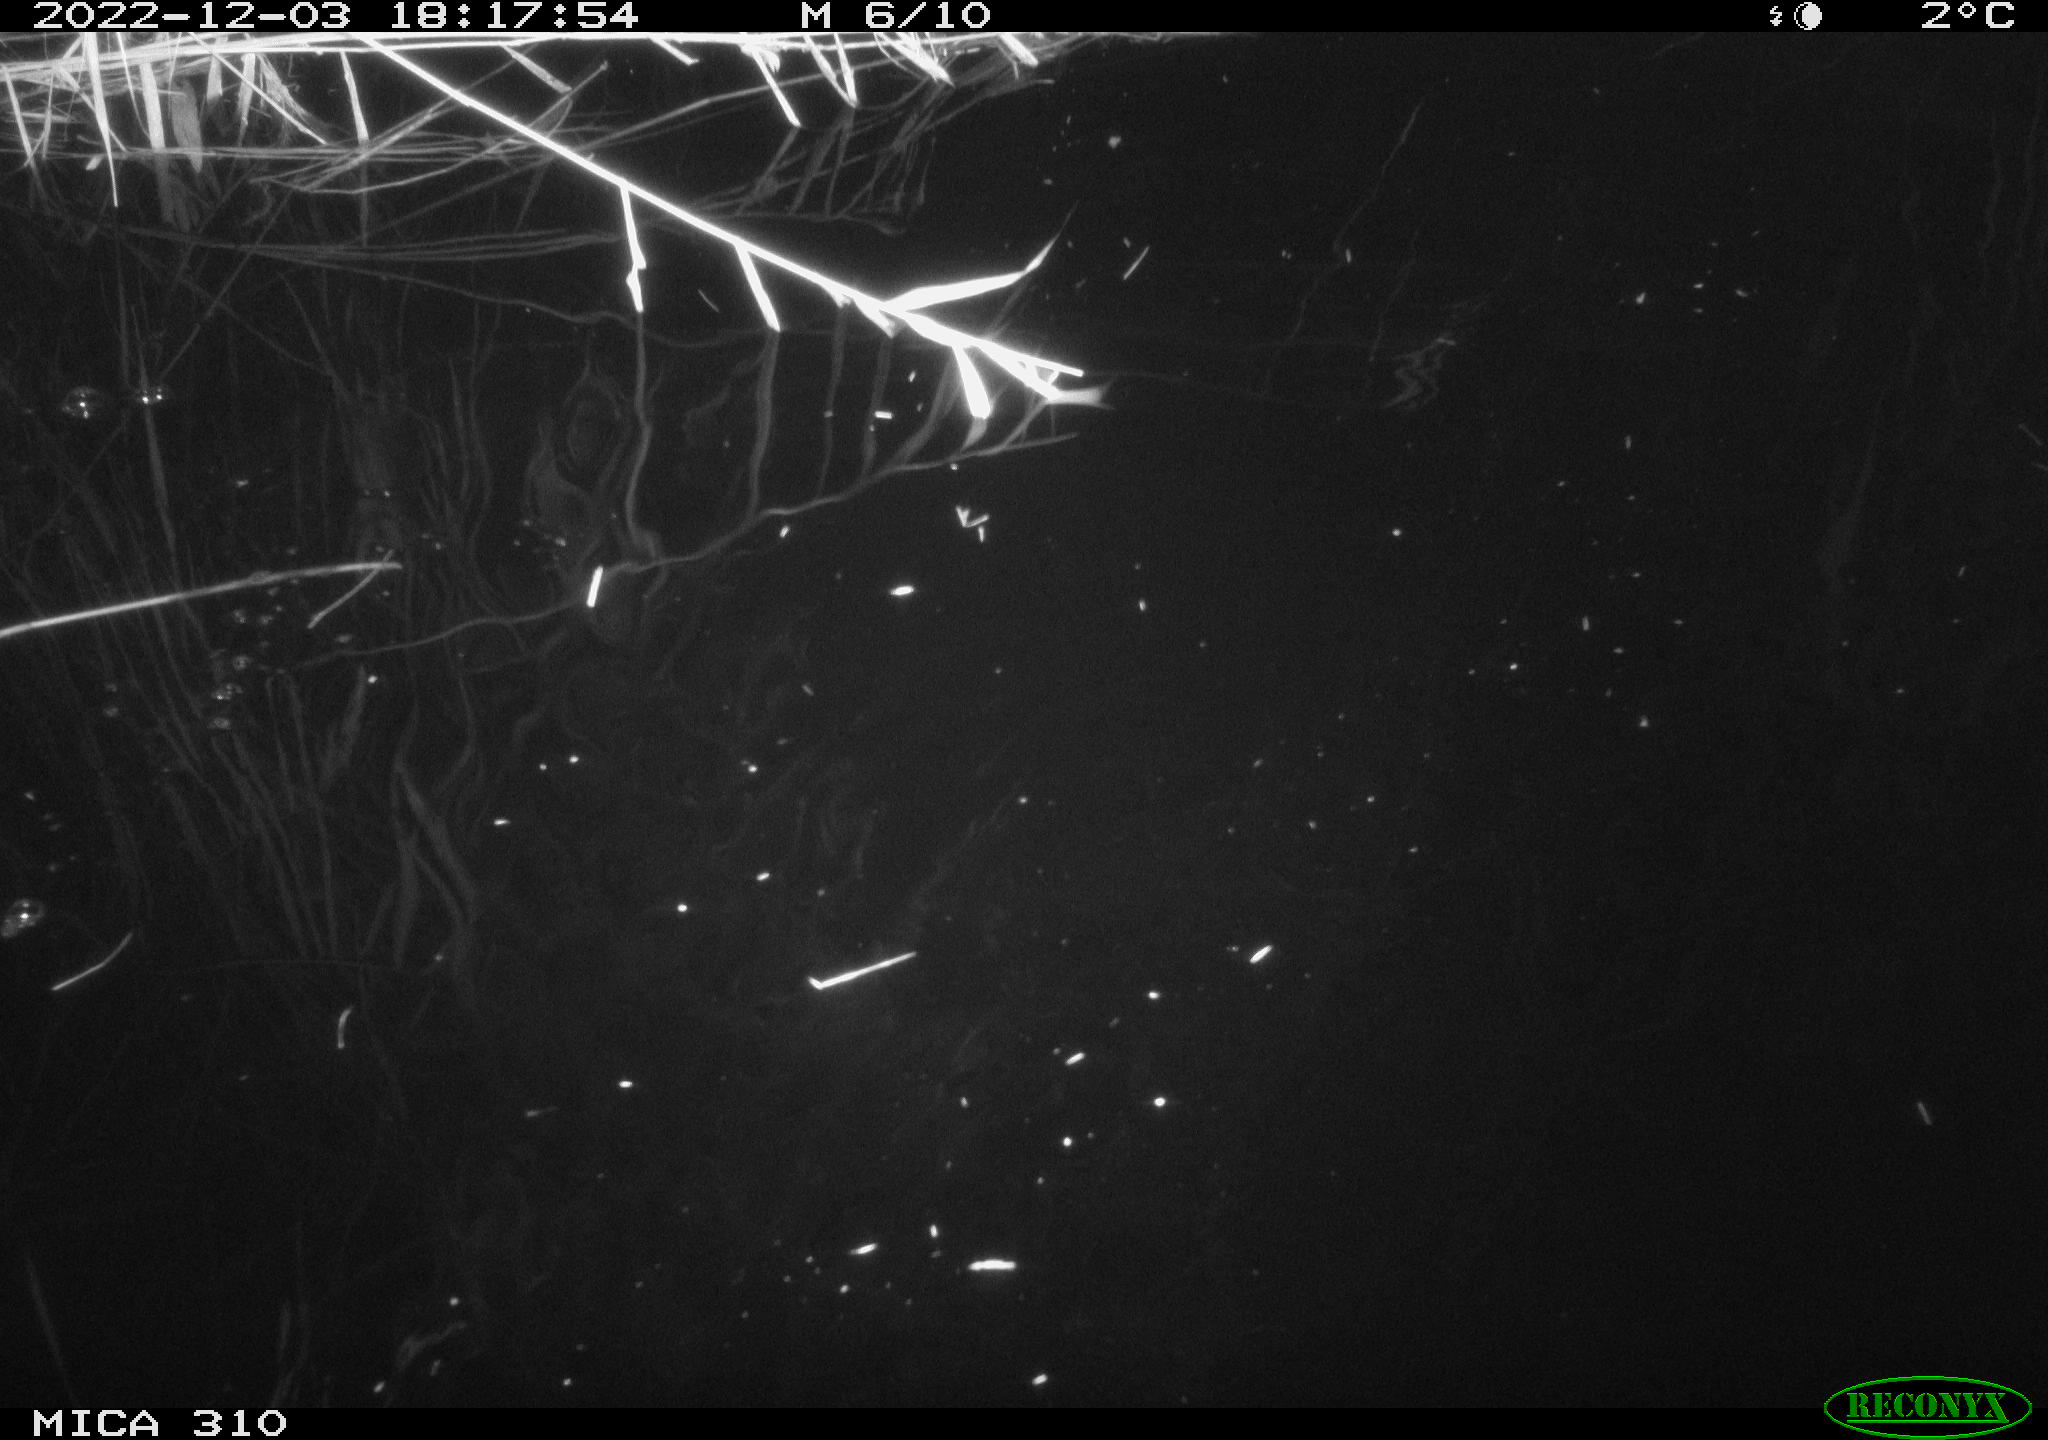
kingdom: Animalia
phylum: Chordata
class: Mammalia
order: Rodentia
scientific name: Rodentia
